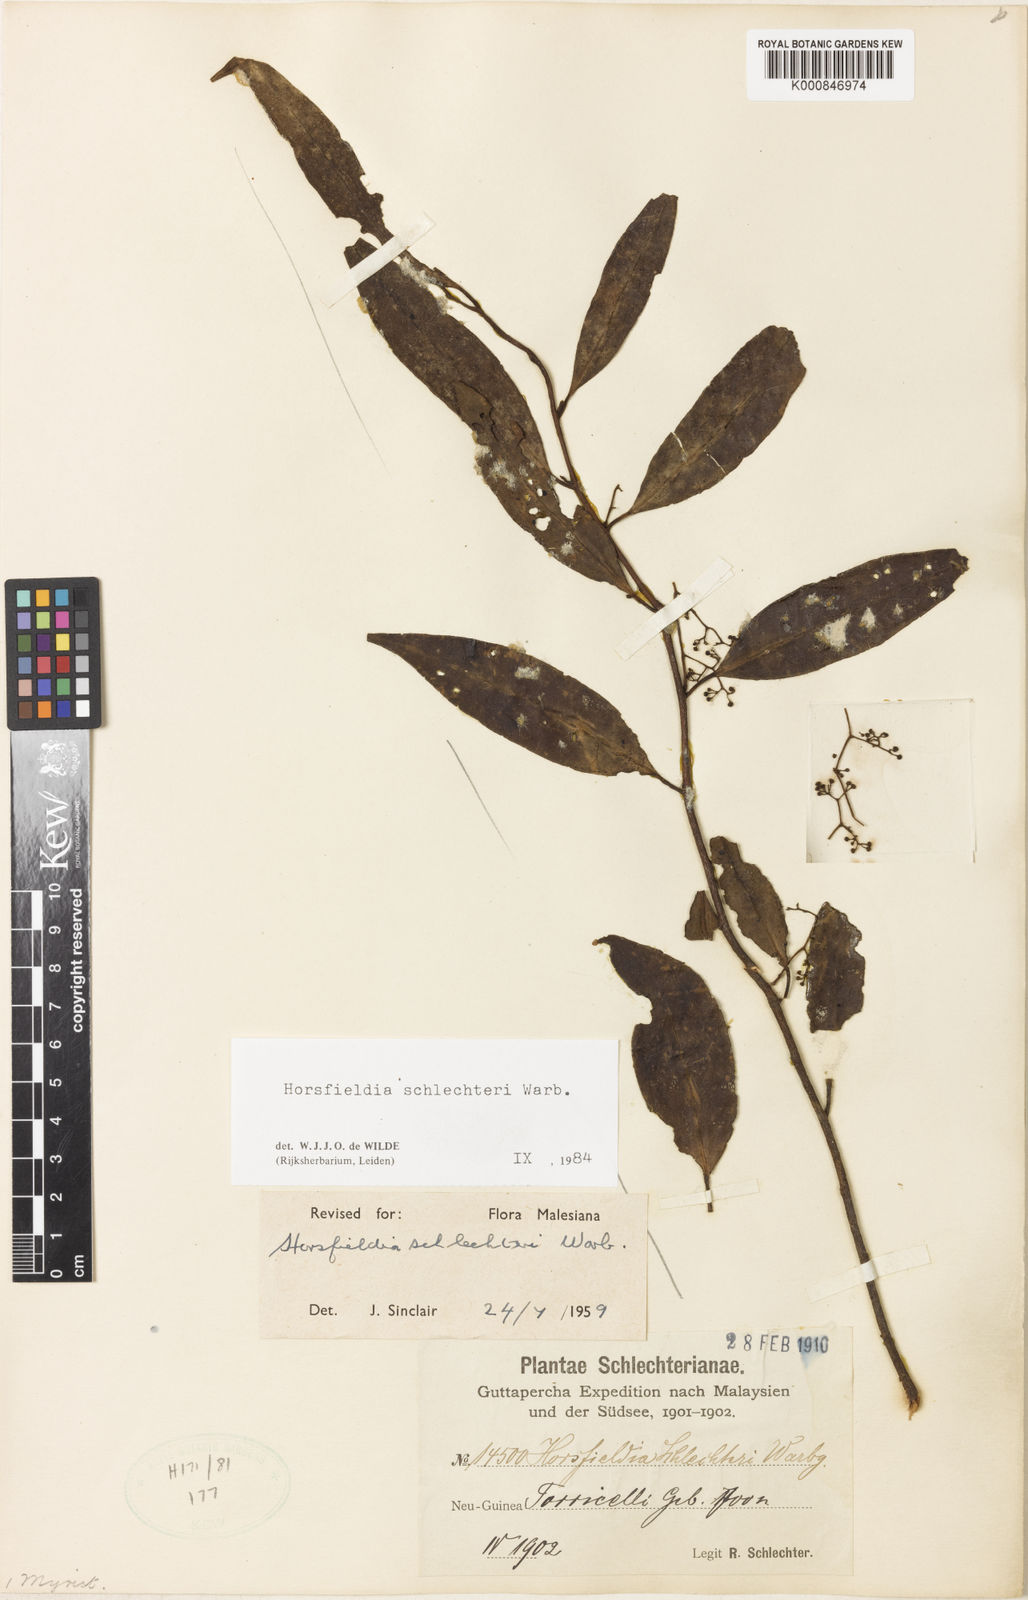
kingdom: Plantae
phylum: Tracheophyta
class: Magnoliopsida
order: Magnoliales
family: Myristicaceae
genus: Horsfieldia
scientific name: Horsfieldia schlechteri
